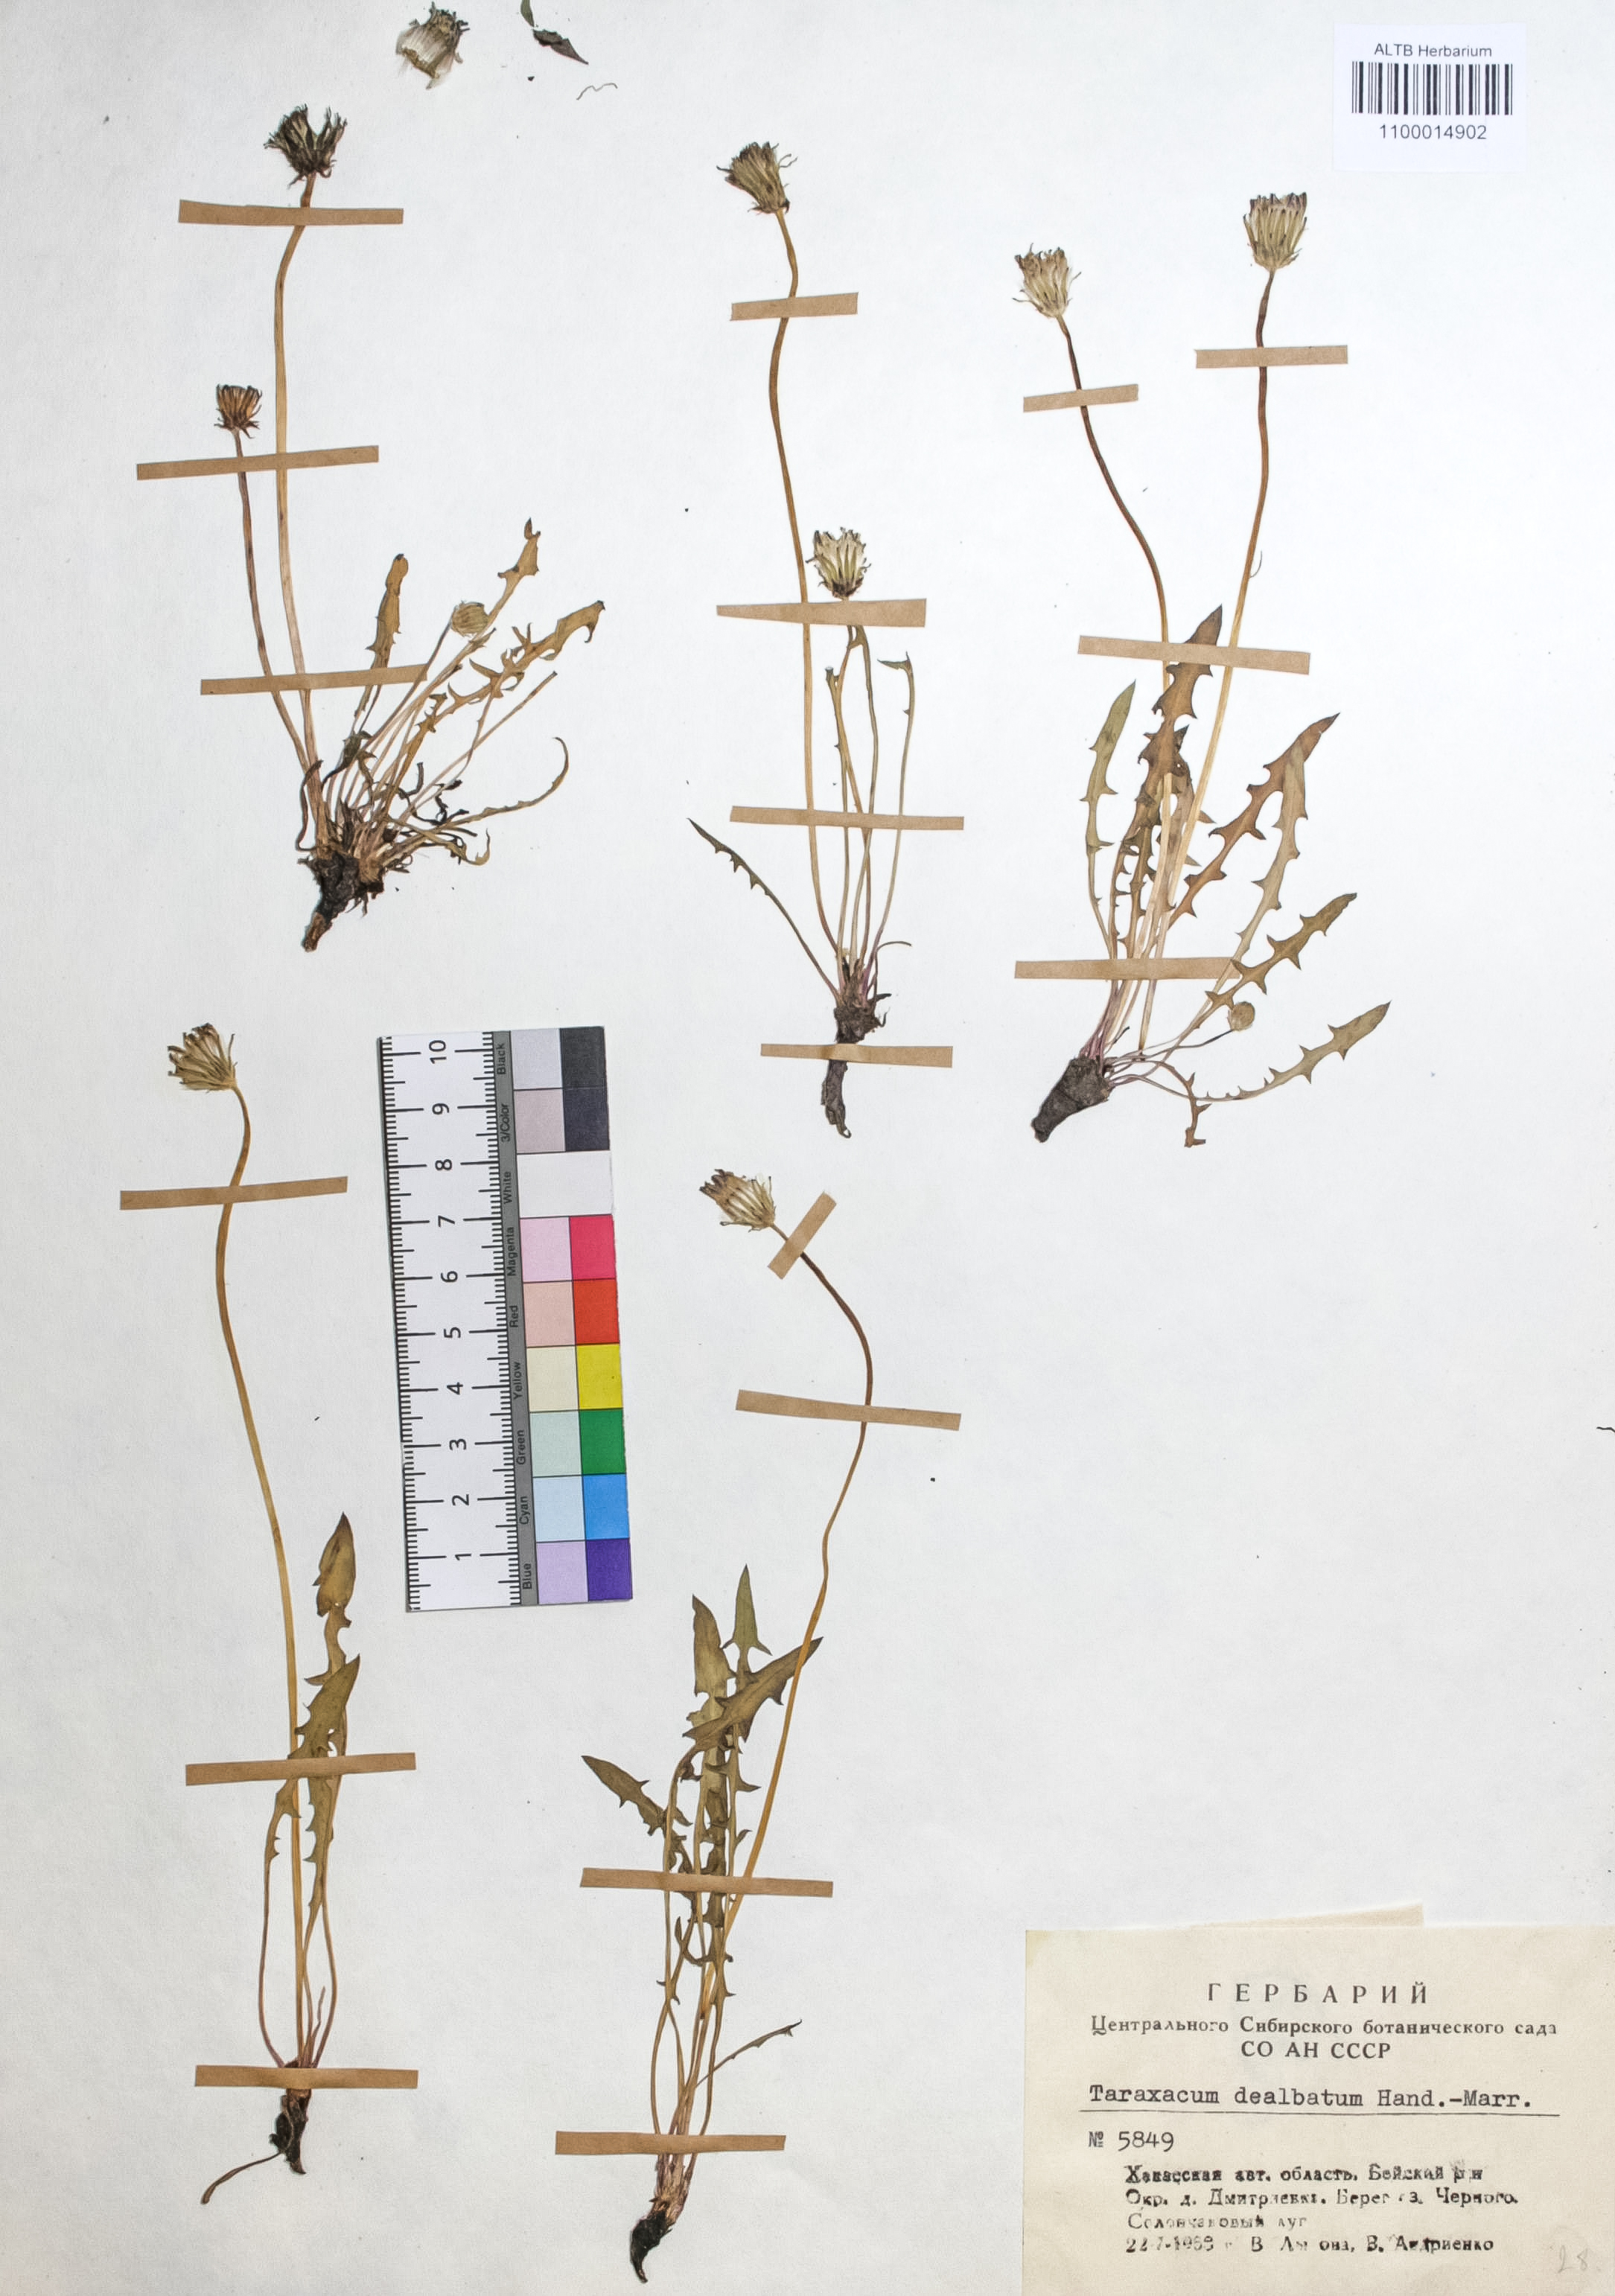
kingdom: Plantae
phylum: Tracheophyta
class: Magnoliopsida
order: Asterales
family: Asteraceae
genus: Taraxacum
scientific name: Taraxacum dealbatum
